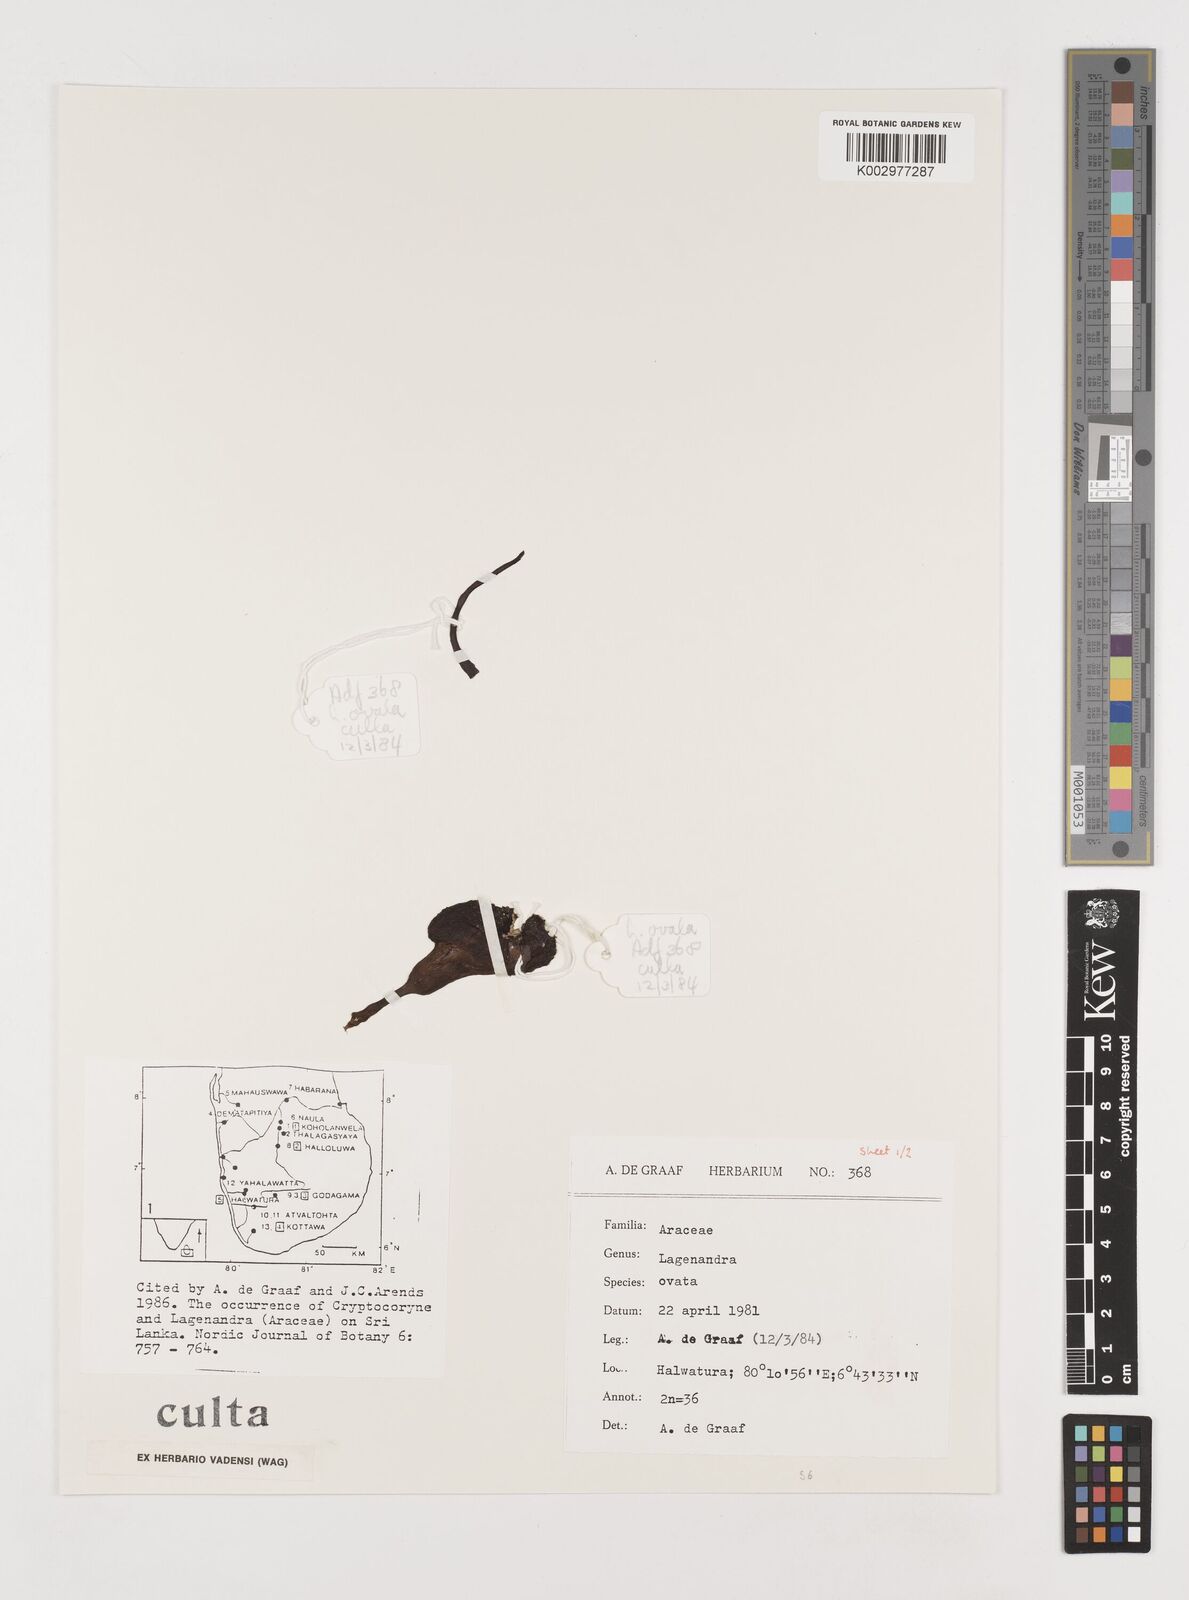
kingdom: Plantae
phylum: Tracheophyta
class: Liliopsida
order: Alismatales
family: Araceae
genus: Lagenandra
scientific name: Lagenandra ovata
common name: Malayan sword
